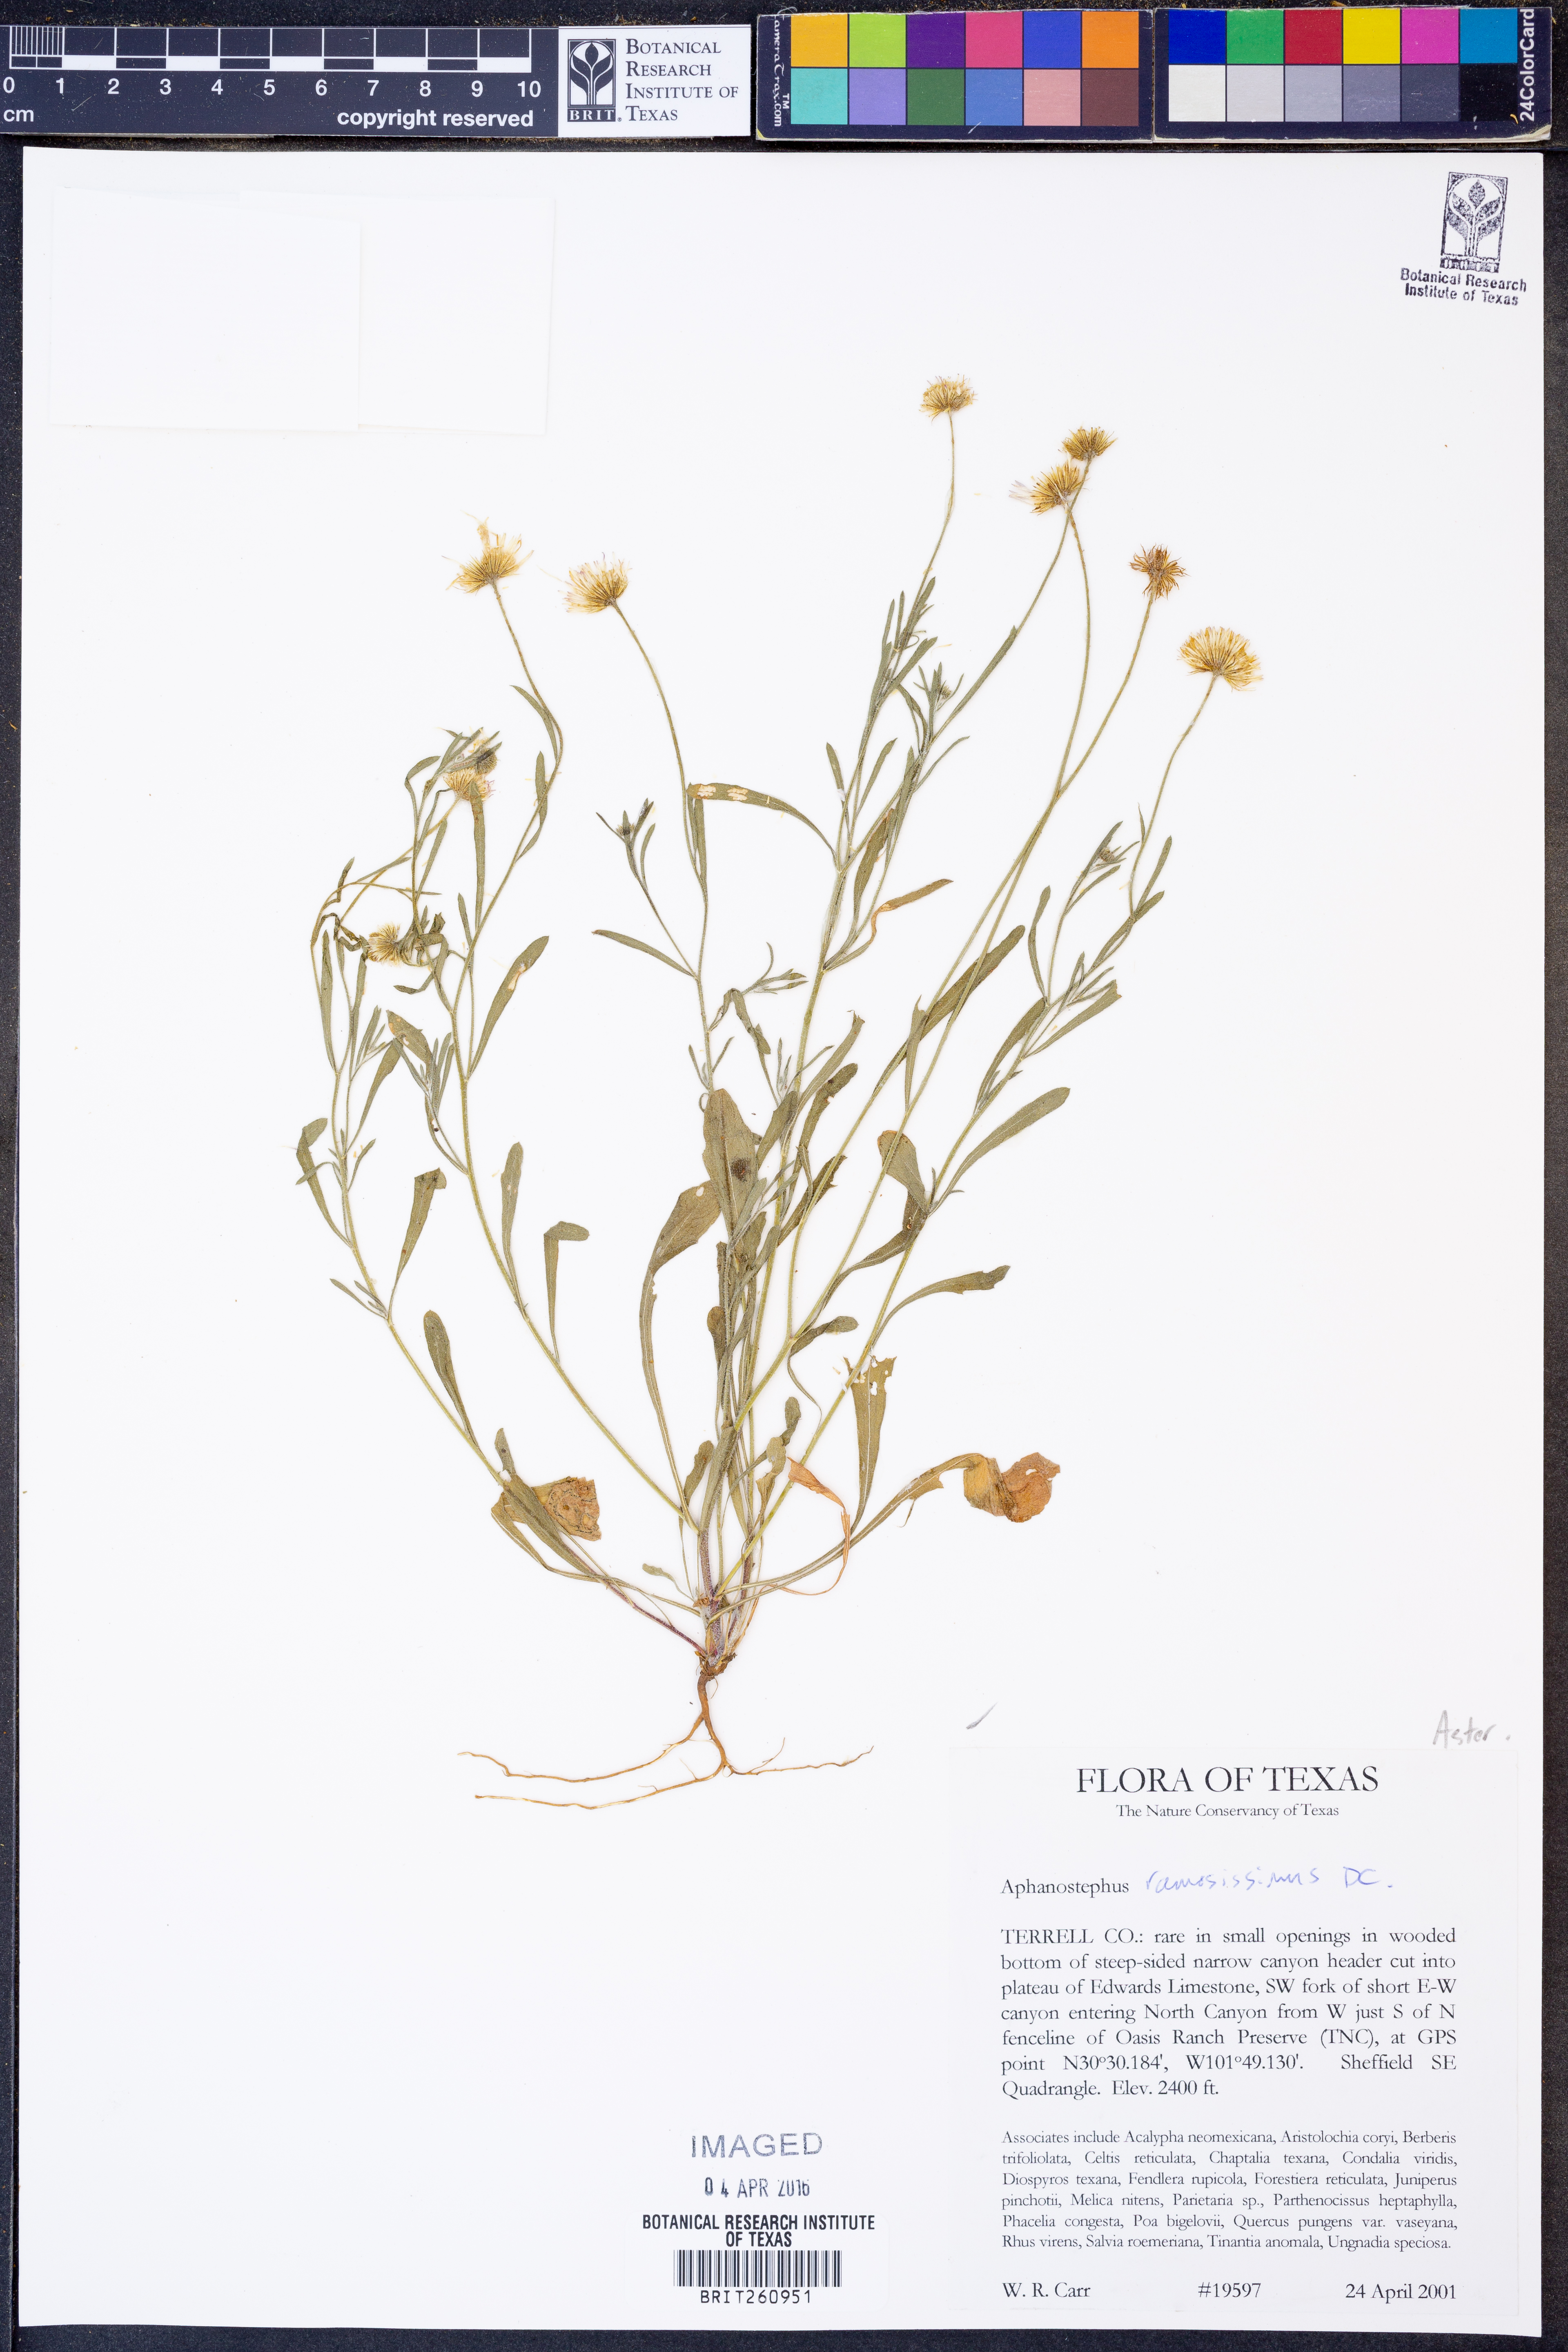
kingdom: Plantae
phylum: Tracheophyta
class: Magnoliopsida
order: Asterales
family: Asteraceae
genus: Aphanostephus
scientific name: Aphanostephus ramosissimus
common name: Plains lazy daisy
